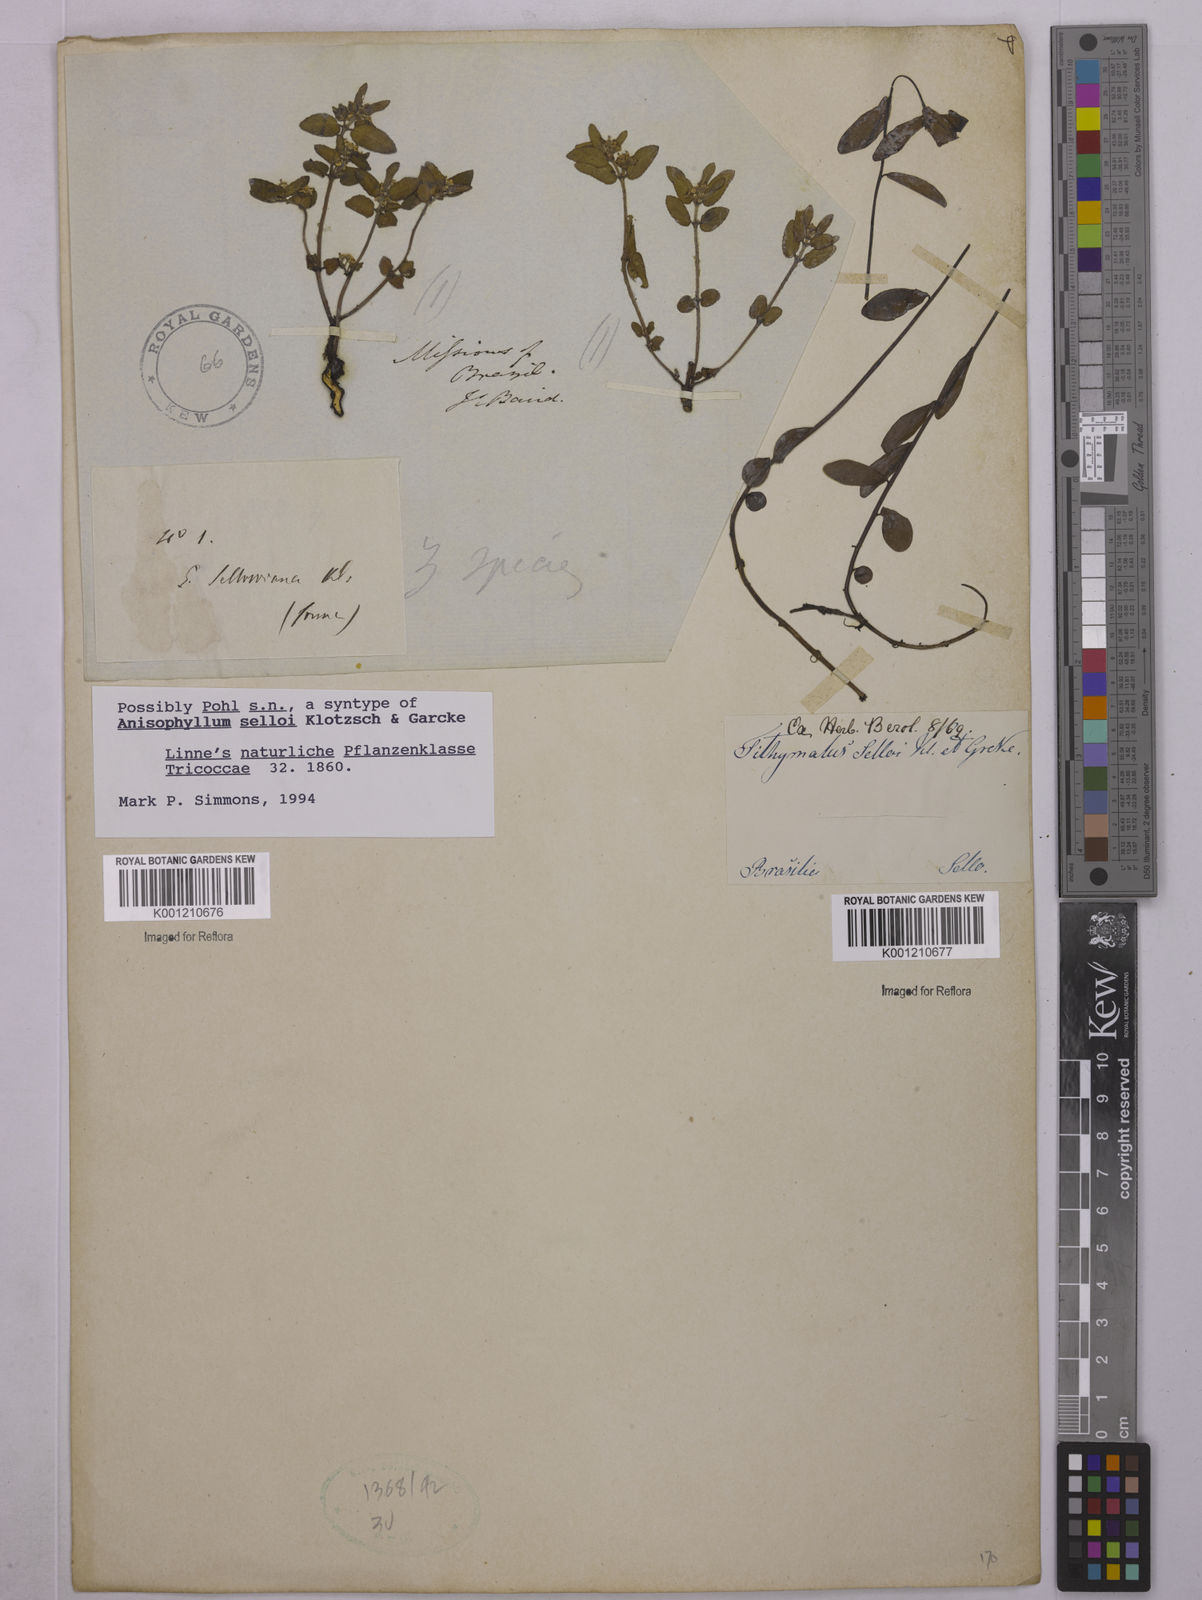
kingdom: Plantae
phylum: Tracheophyta
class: Magnoliopsida
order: Malpighiales
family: Euphorbiaceae
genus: Euphorbia
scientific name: Euphorbia selloi
